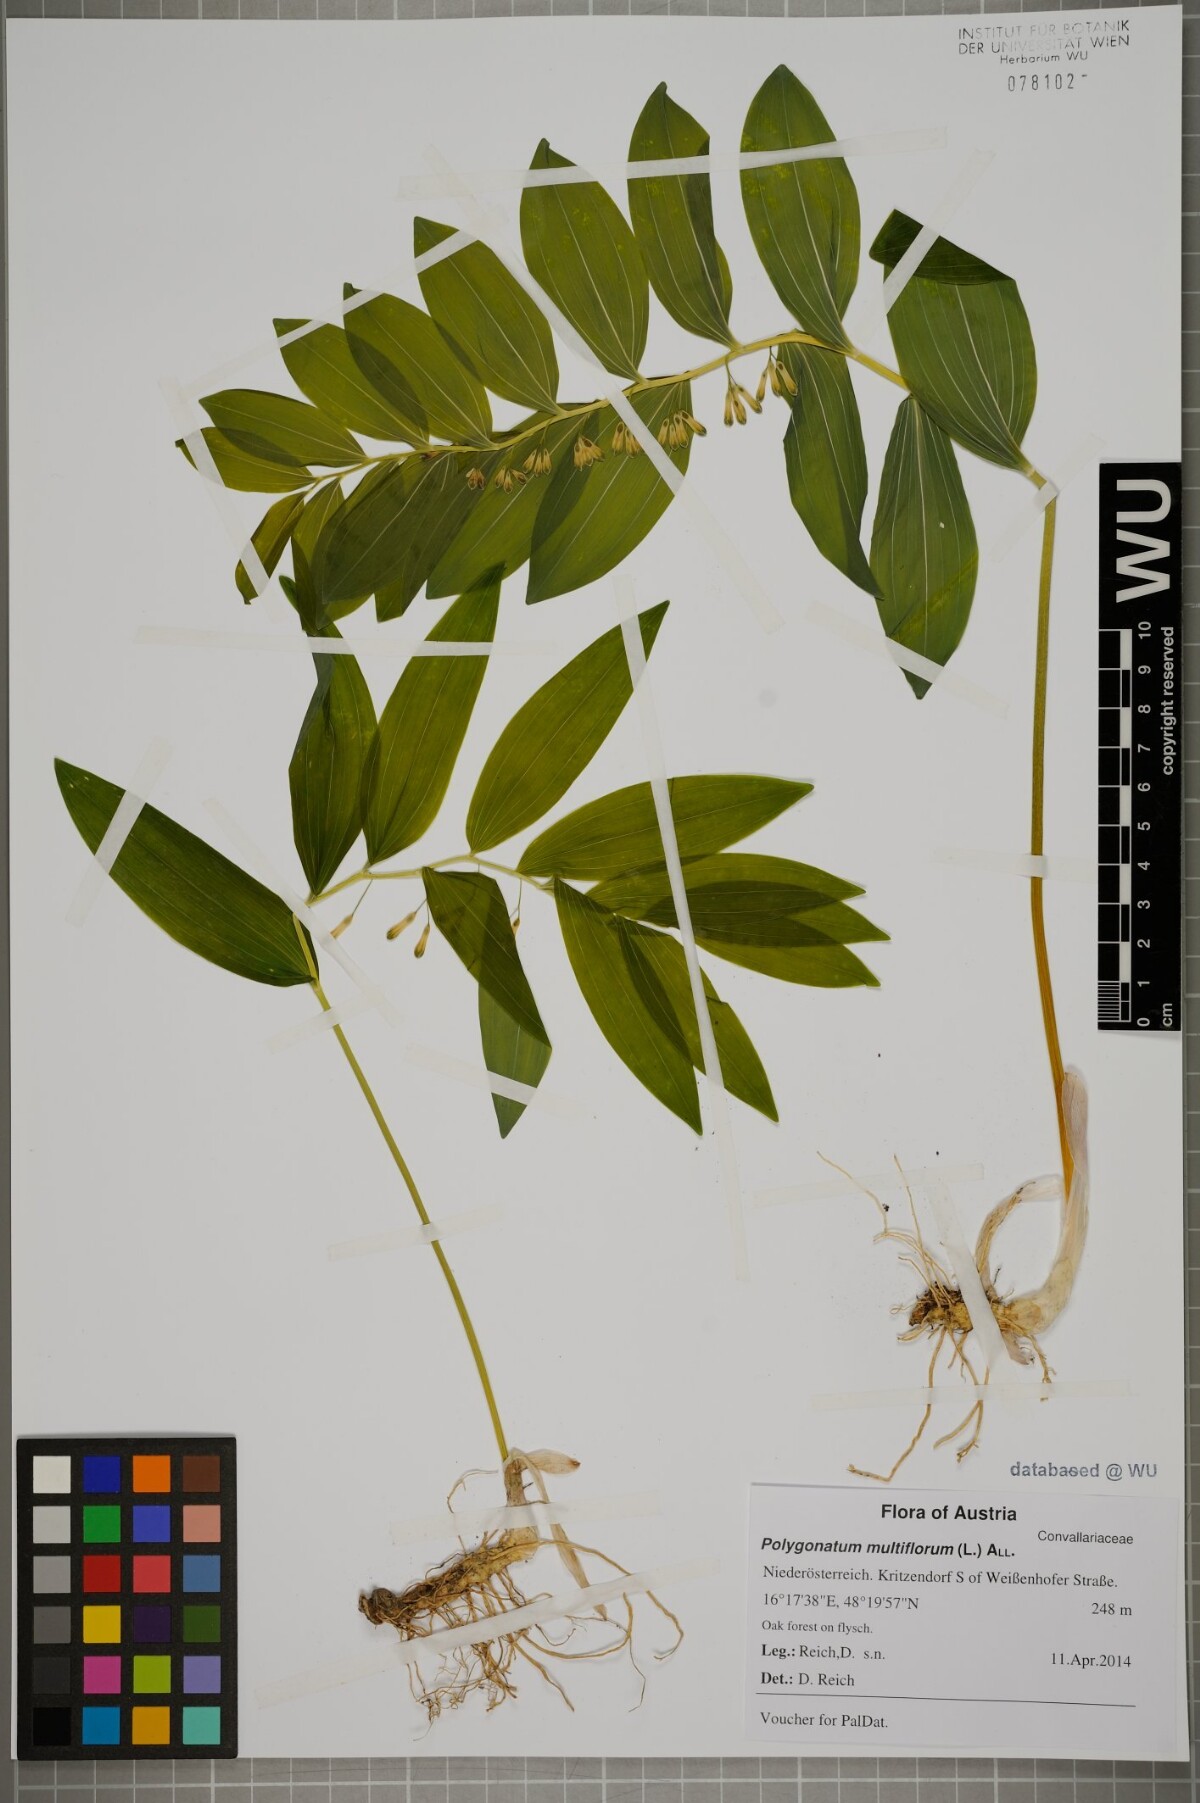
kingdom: Plantae
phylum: Tracheophyta
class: Liliopsida
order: Asparagales
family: Asparagaceae
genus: Polygonatum
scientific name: Polygonatum multiflorum
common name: Solomon's-seal
